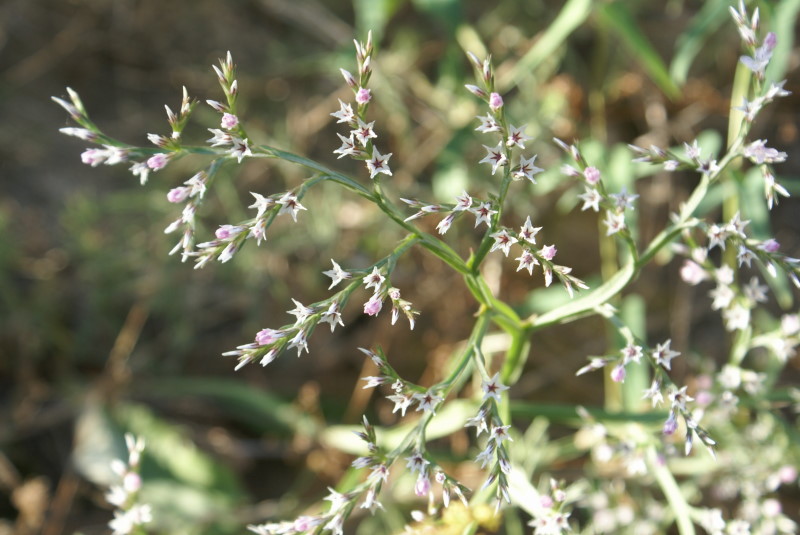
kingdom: Plantae
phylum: Tracheophyta
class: Magnoliopsida
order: Caryophyllales
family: Plumbaginaceae
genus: Goniolimon
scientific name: Goniolimon tauricum
